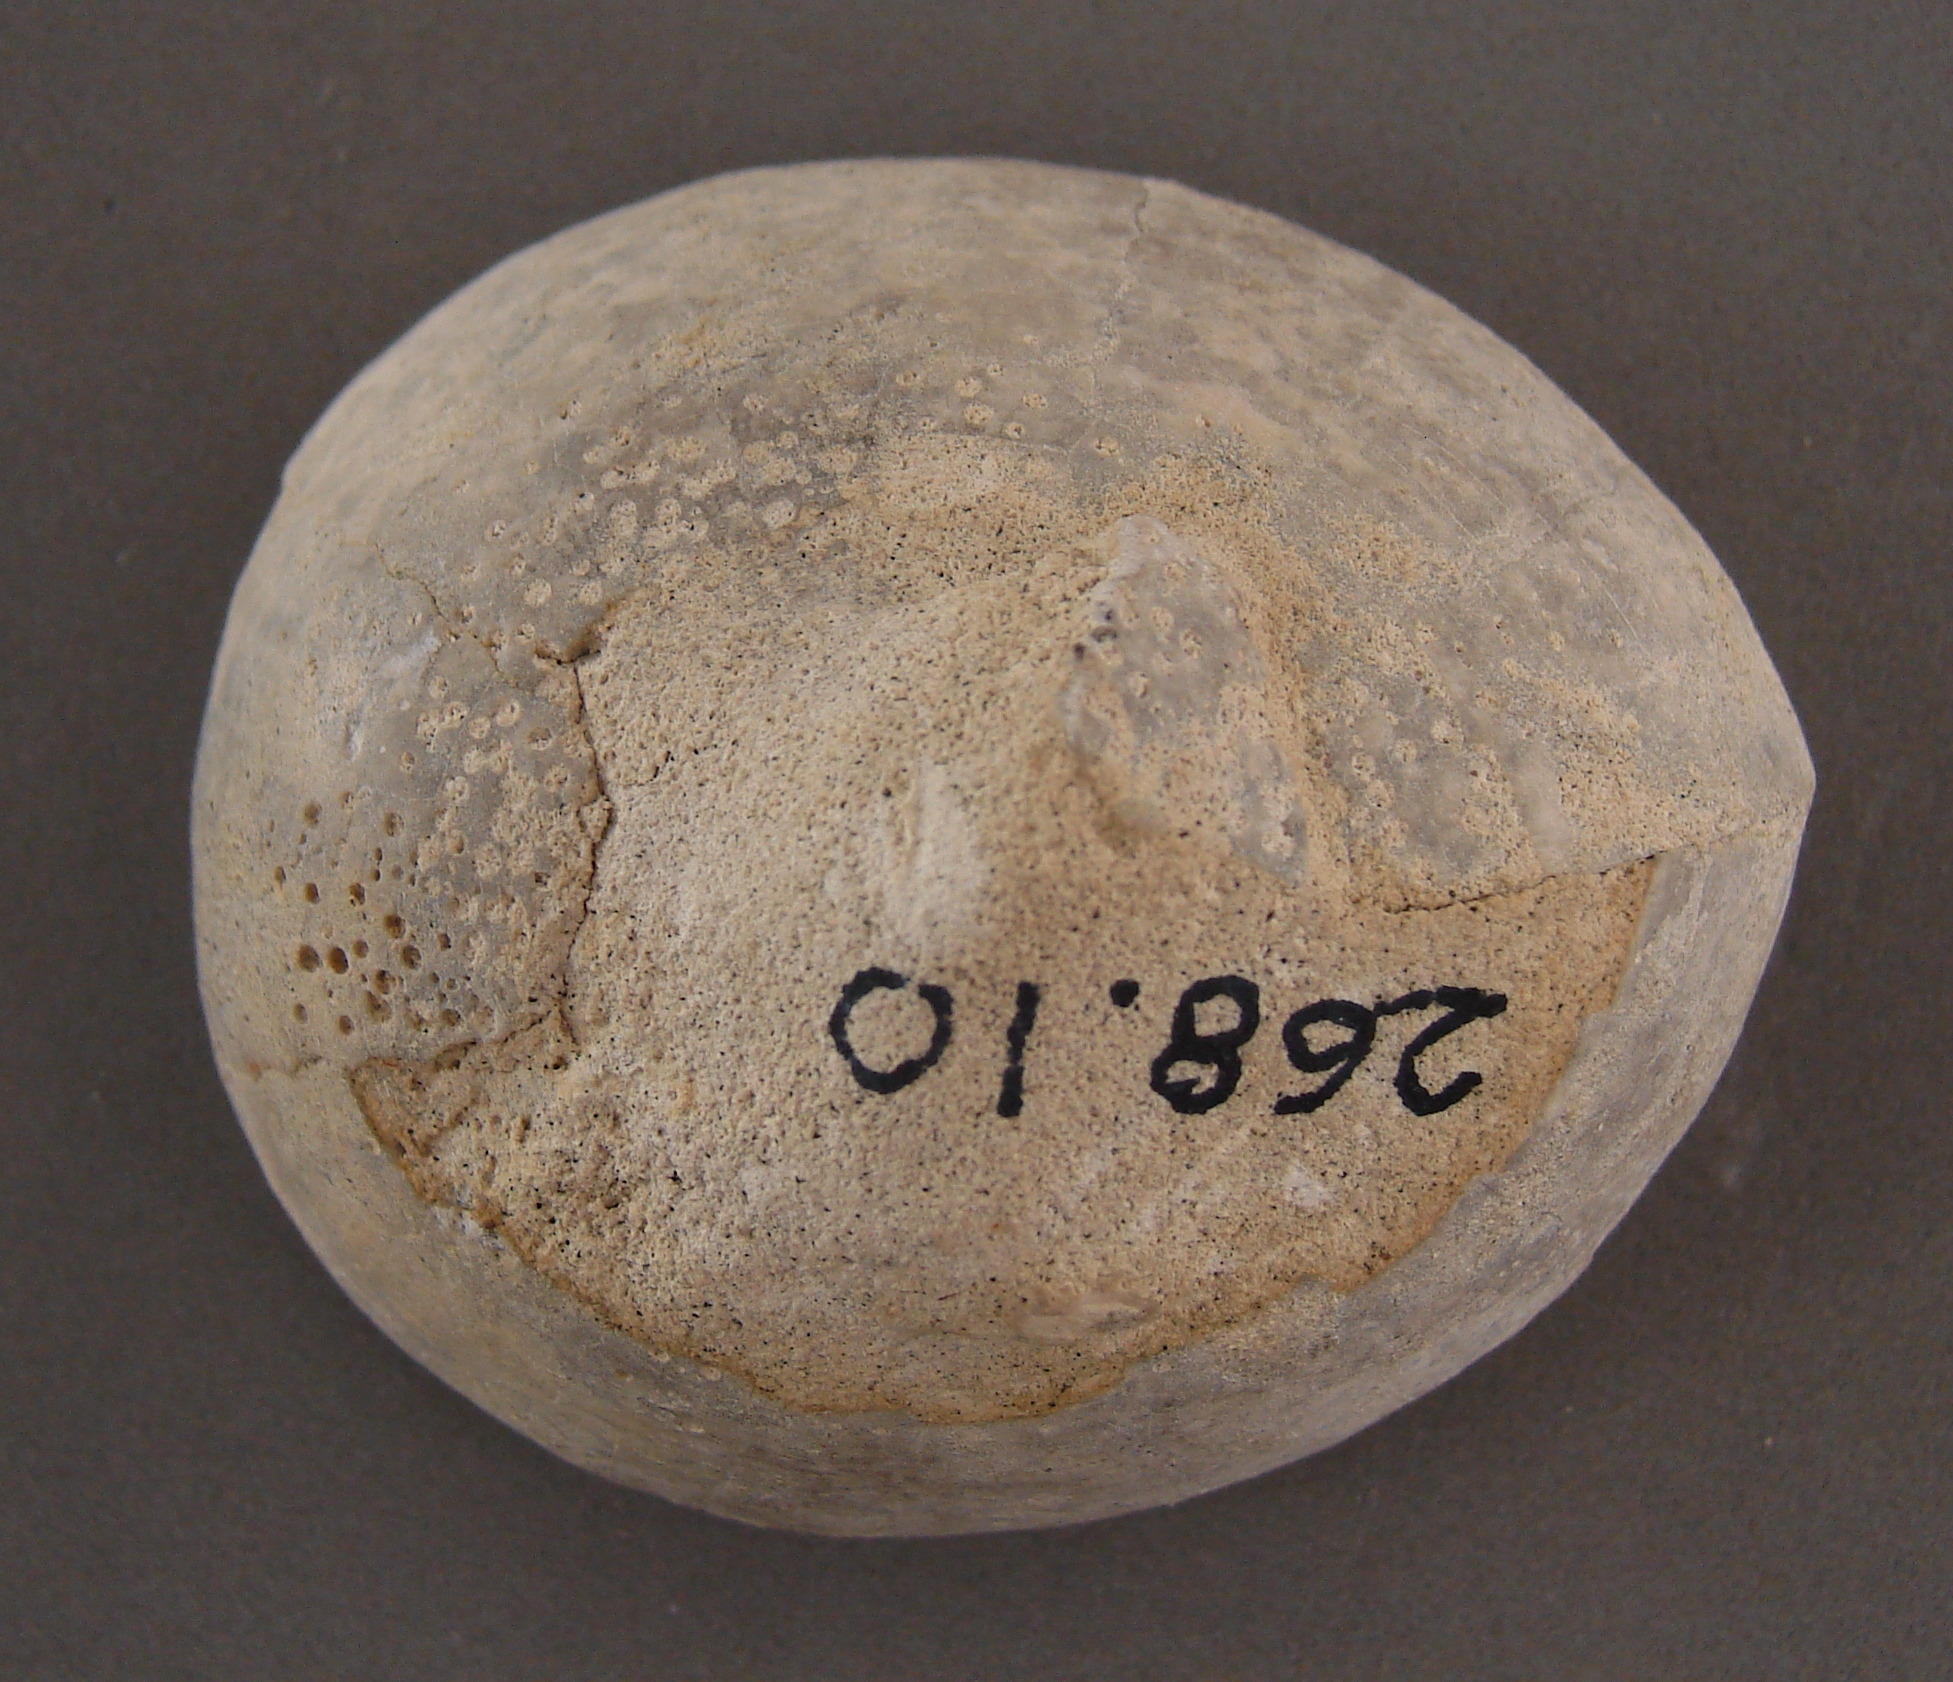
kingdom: Animalia
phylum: Echinodermata
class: Echinoidea
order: Holasteroida
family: Echinocorythidae
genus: Echinocorys
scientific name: Echinocorys
